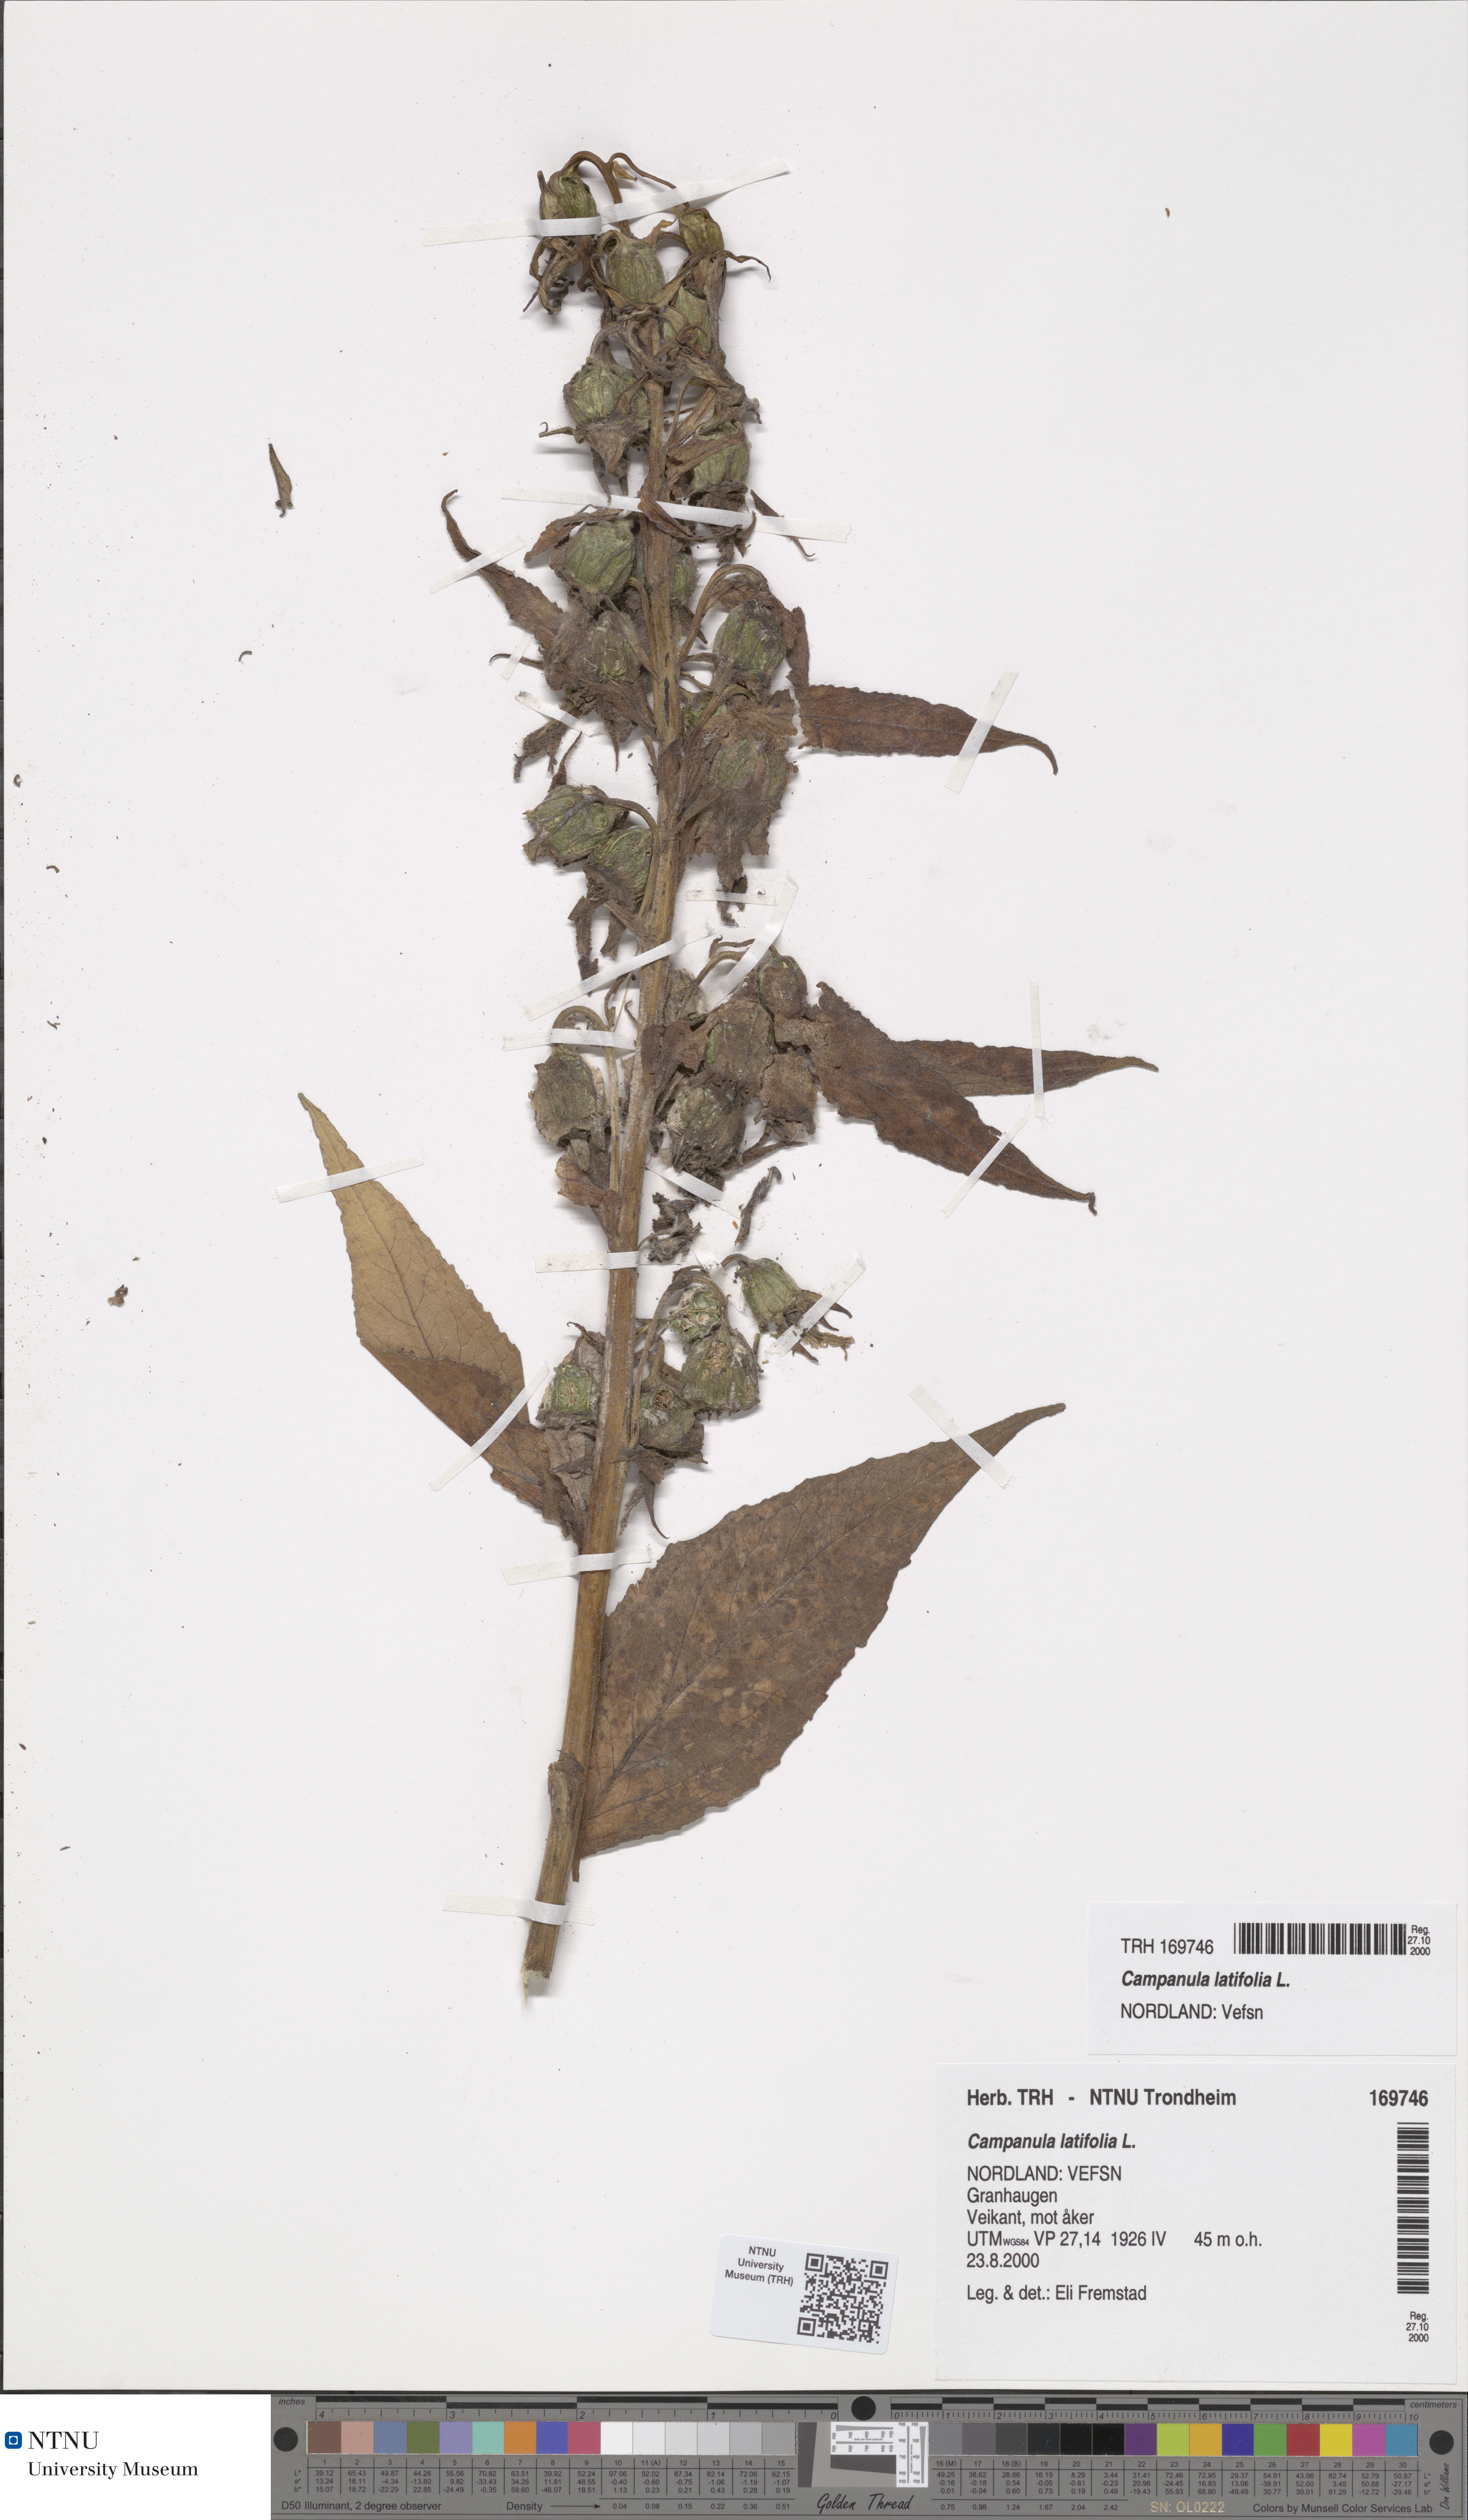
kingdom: Plantae
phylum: Tracheophyta
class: Magnoliopsida
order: Asterales
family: Campanulaceae
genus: Campanula
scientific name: Campanula latifolia
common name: Giant bellflower
